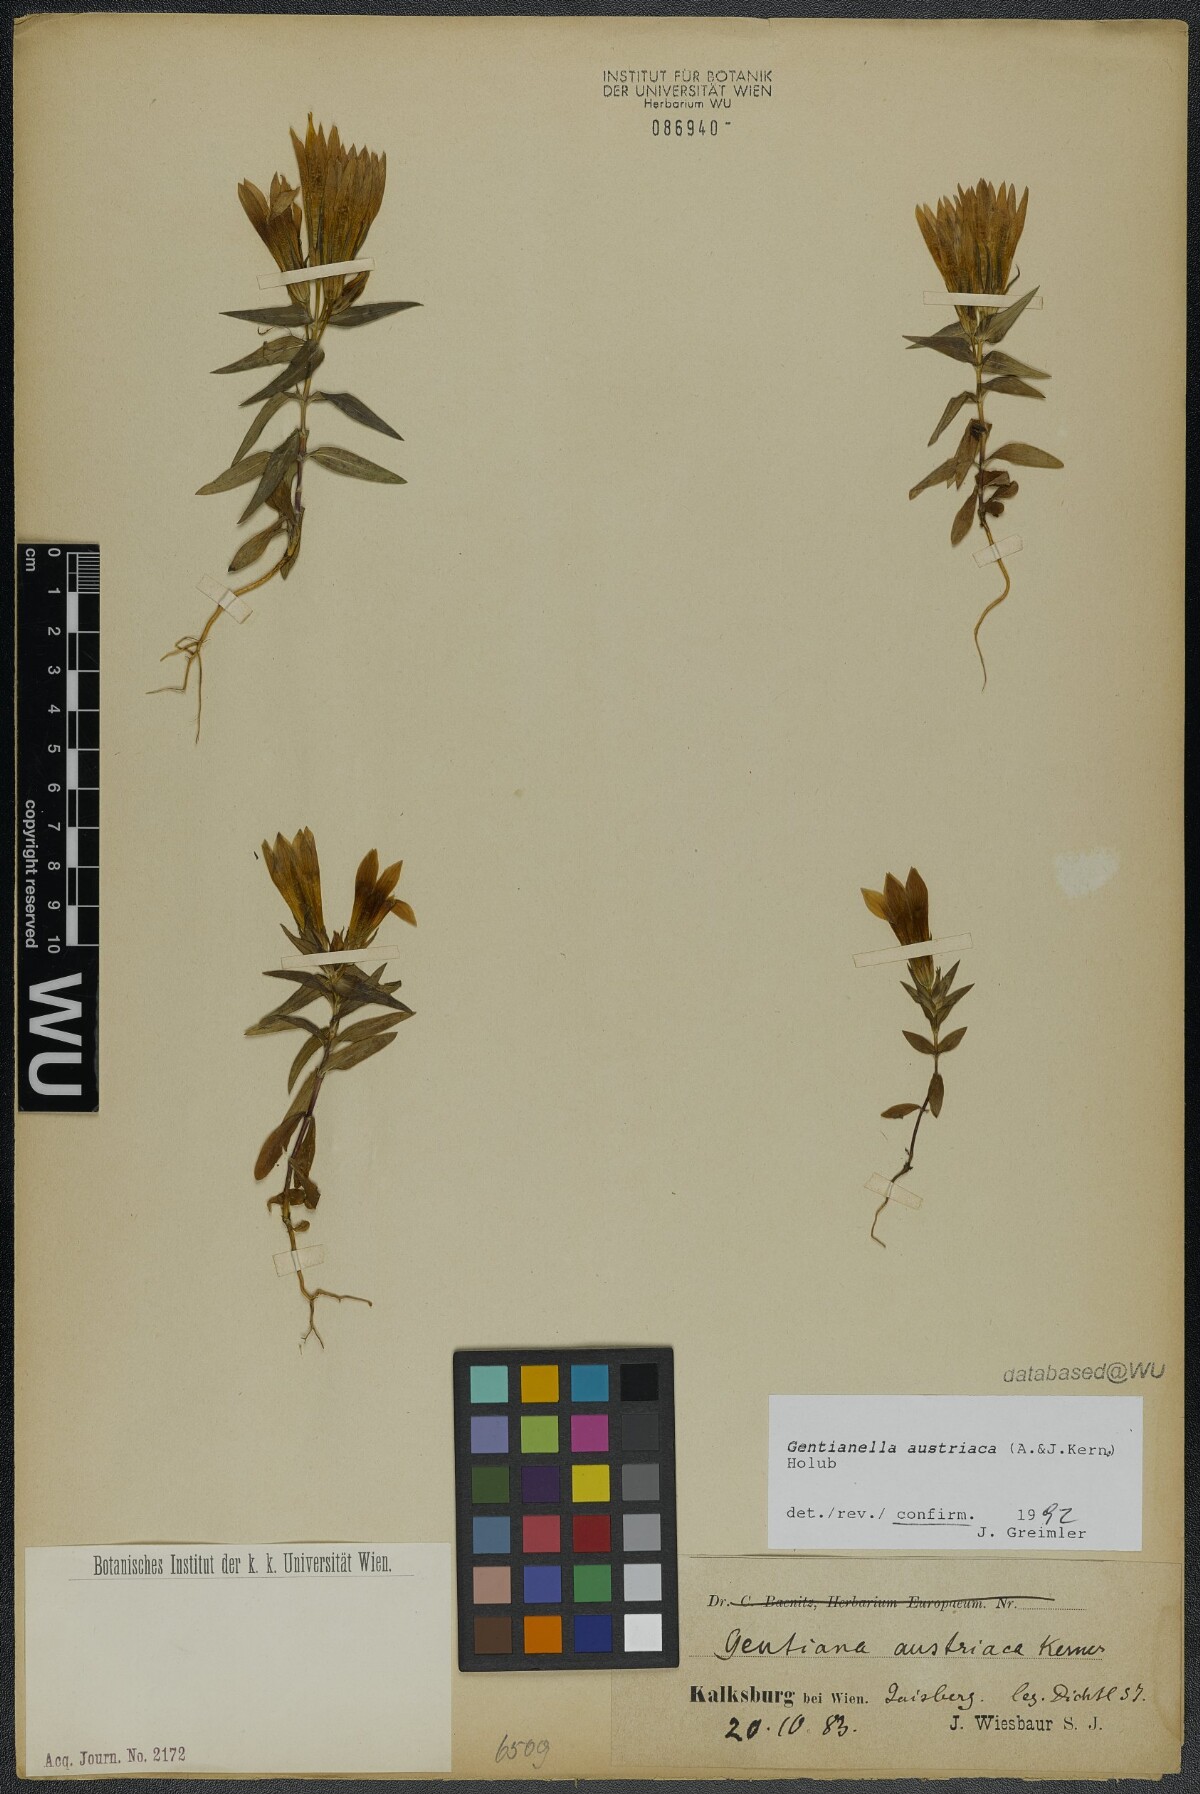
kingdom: Plantae
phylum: Tracheophyta
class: Magnoliopsida
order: Gentianales
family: Gentianaceae
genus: Gentianella
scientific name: Gentianella austriaca
